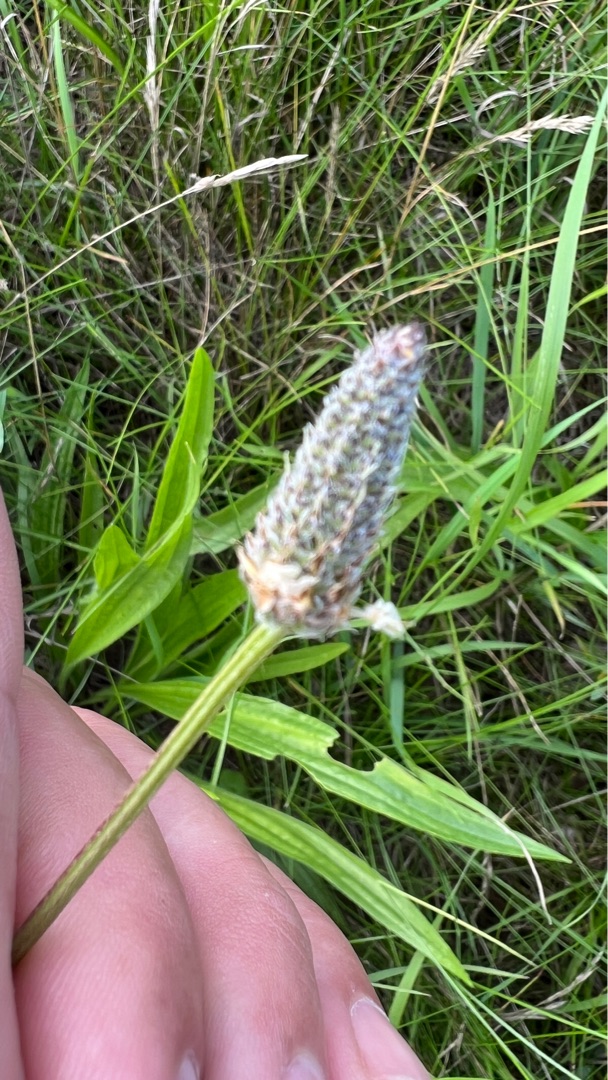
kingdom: Plantae
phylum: Tracheophyta
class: Magnoliopsida
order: Lamiales
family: Plantaginaceae
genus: Plantago
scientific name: Plantago lanceolata
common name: Lancet-vejbred
